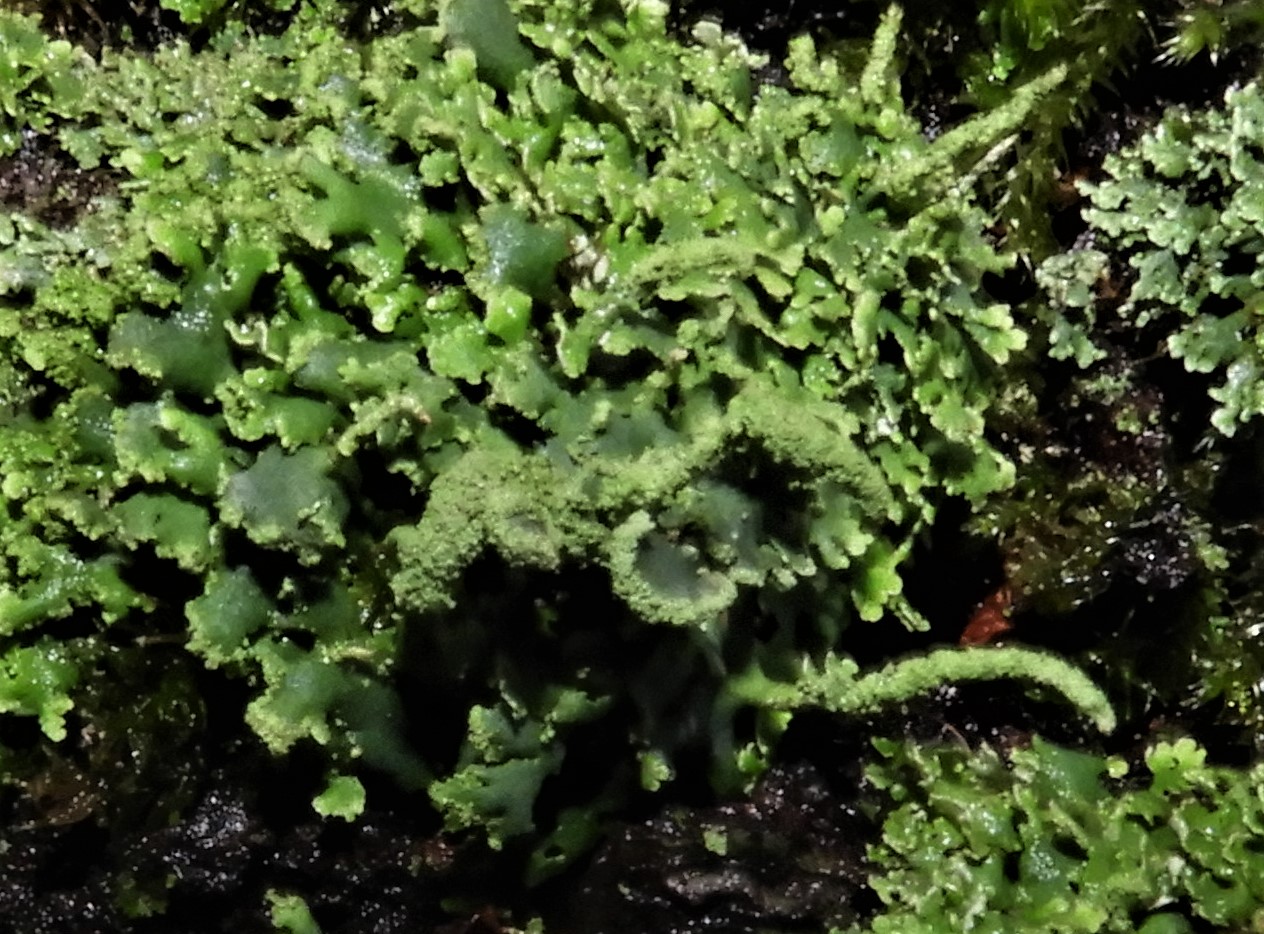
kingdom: Fungi
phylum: Ascomycota
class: Lecanoromycetes
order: Lecanorales
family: Cladoniaceae
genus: Cladonia
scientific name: Cladonia
